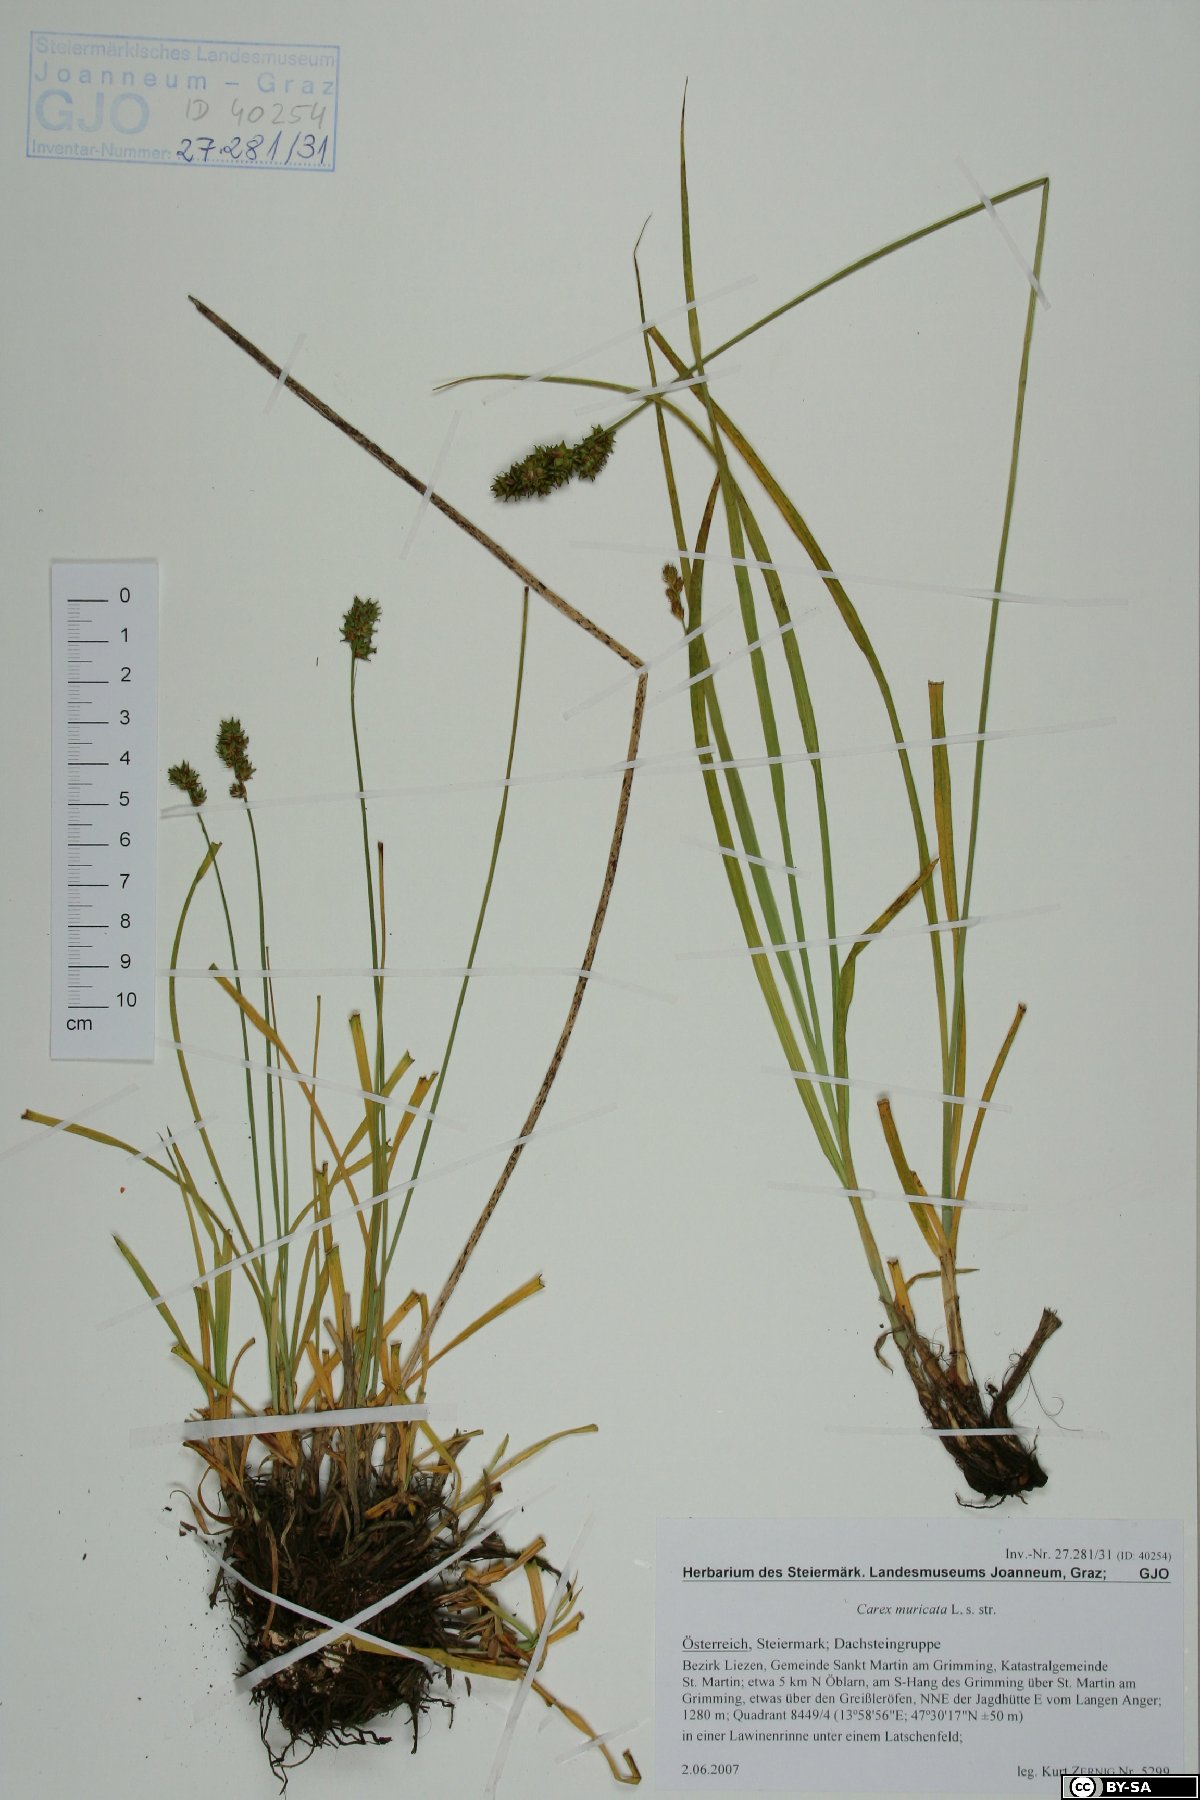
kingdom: Plantae
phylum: Tracheophyta
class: Liliopsida
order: Poales
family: Cyperaceae
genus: Carex
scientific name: Carex muricata
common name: Rough sedge
